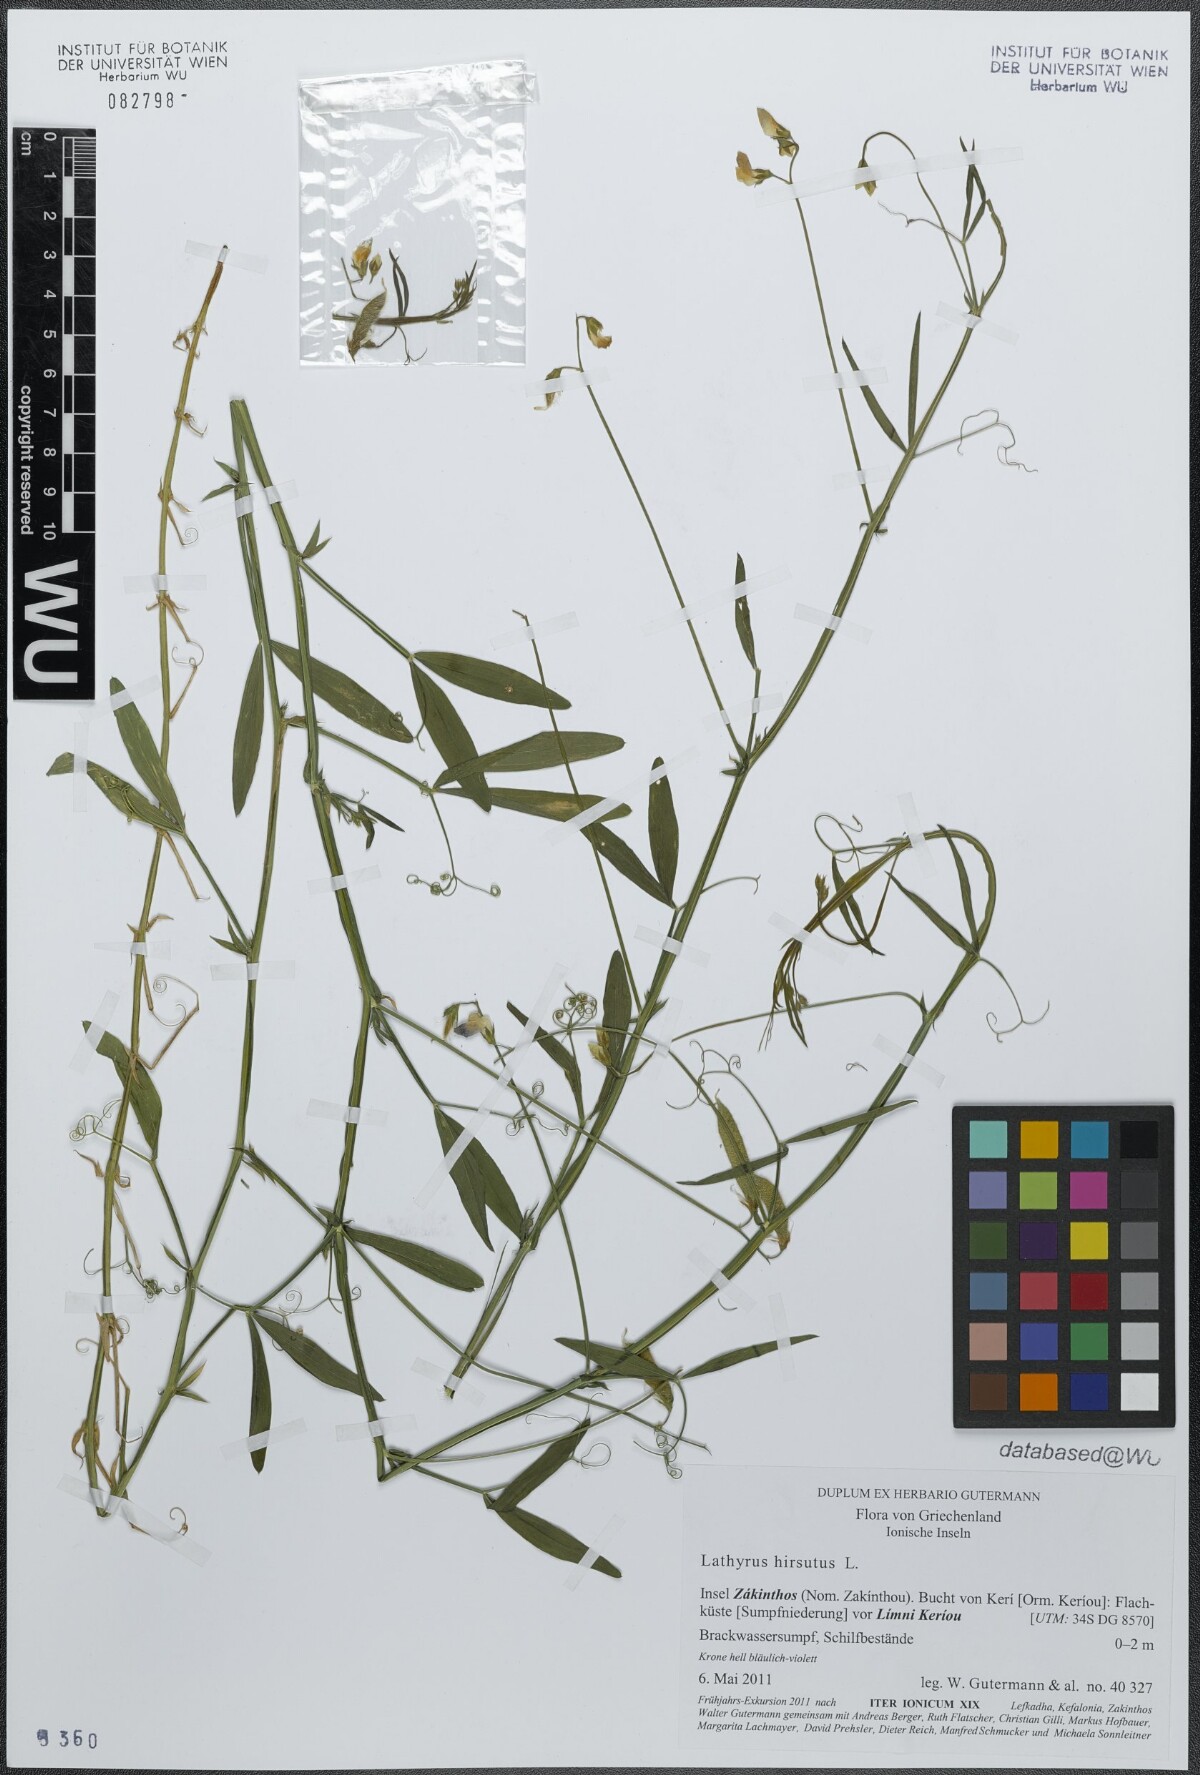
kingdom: Plantae
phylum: Tracheophyta
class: Magnoliopsida
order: Fabales
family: Fabaceae
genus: Lathyrus
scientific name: Lathyrus hirsutus
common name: Hairy vetchling
